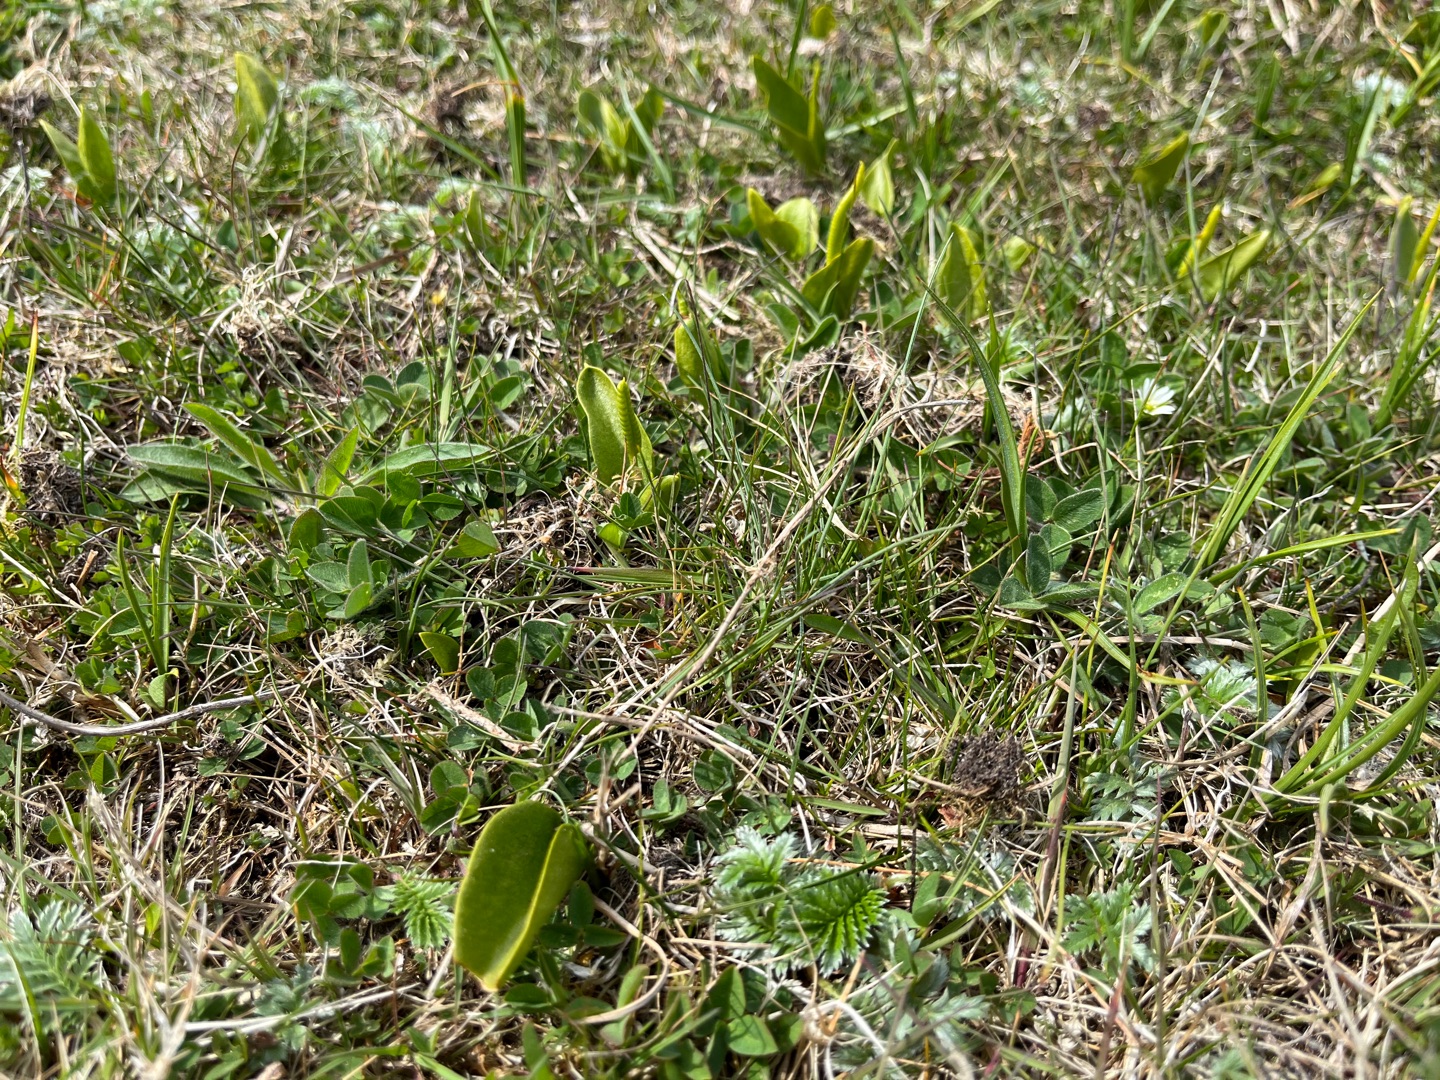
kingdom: Plantae
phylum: Tracheophyta
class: Polypodiopsida
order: Ophioglossales
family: Ophioglossaceae
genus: Ophioglossum
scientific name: Ophioglossum vulgatum
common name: Slangetunge
